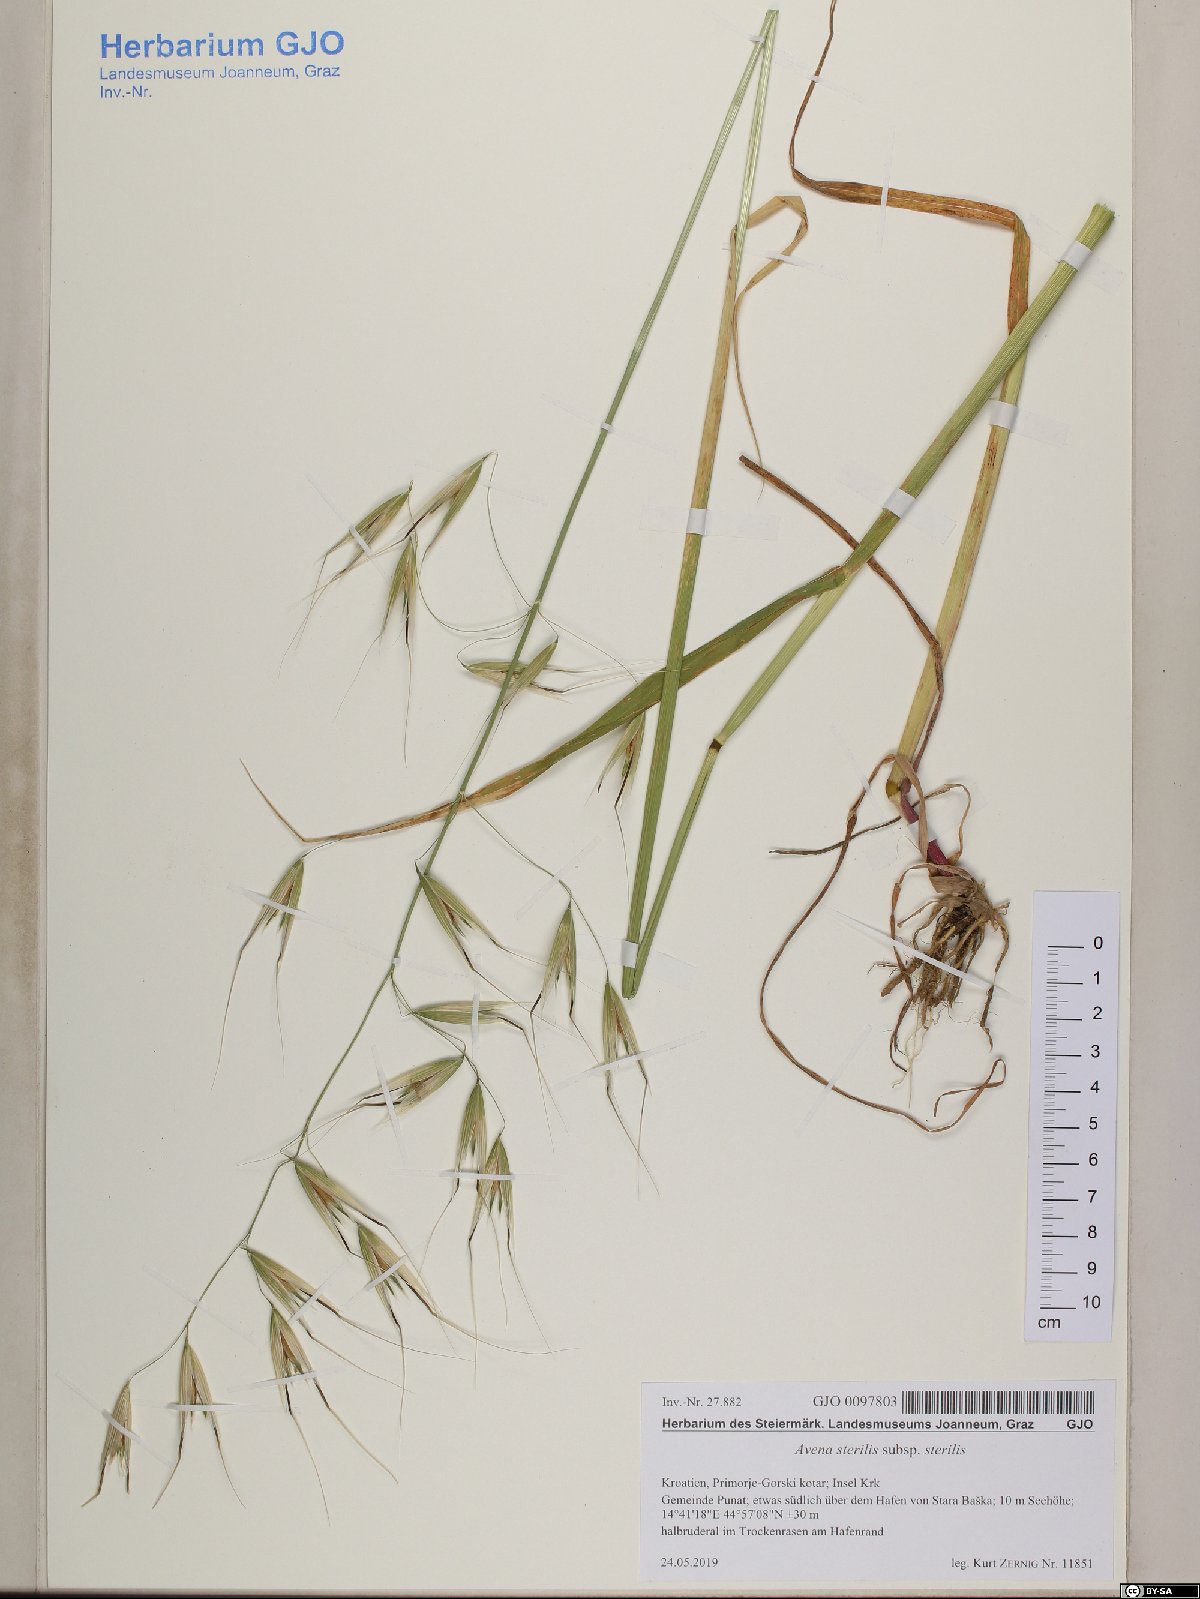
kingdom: Plantae
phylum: Tracheophyta
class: Liliopsida
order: Poales
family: Poaceae
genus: Avena
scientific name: Avena sterilis
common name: Animated oat
